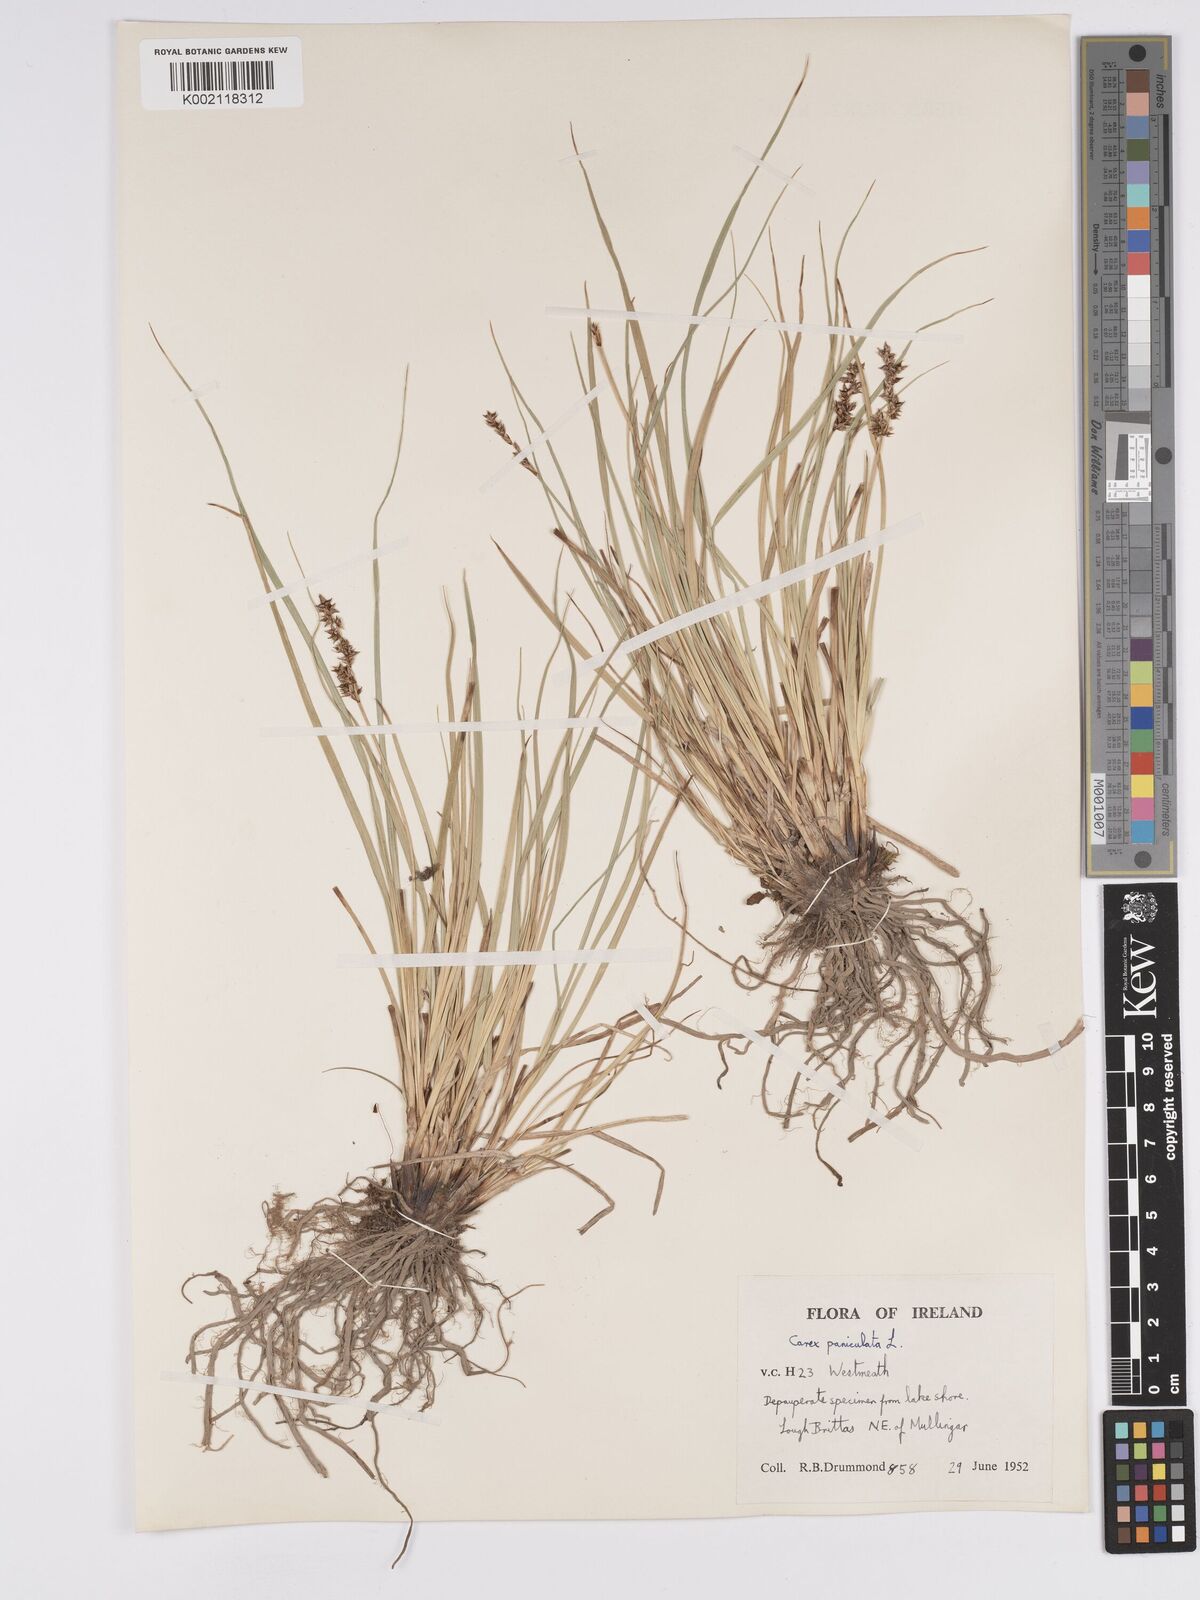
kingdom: Plantae
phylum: Tracheophyta
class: Liliopsida
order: Poales
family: Cyperaceae
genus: Carex
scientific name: Carex paniculata
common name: Greater tussock-sedge
